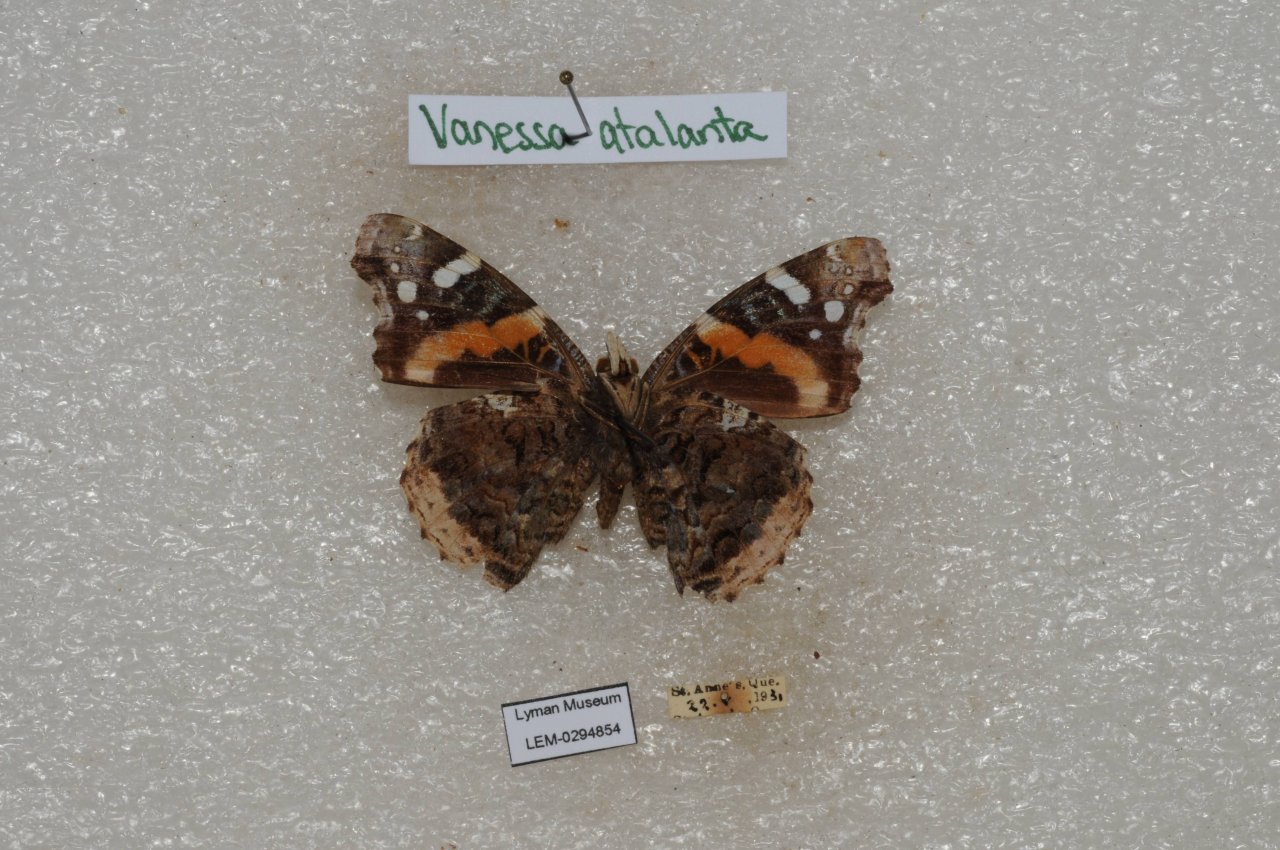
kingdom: Animalia
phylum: Arthropoda
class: Insecta
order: Lepidoptera
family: Nymphalidae
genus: Vanessa
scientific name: Vanessa atalanta
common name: Red Admiral
